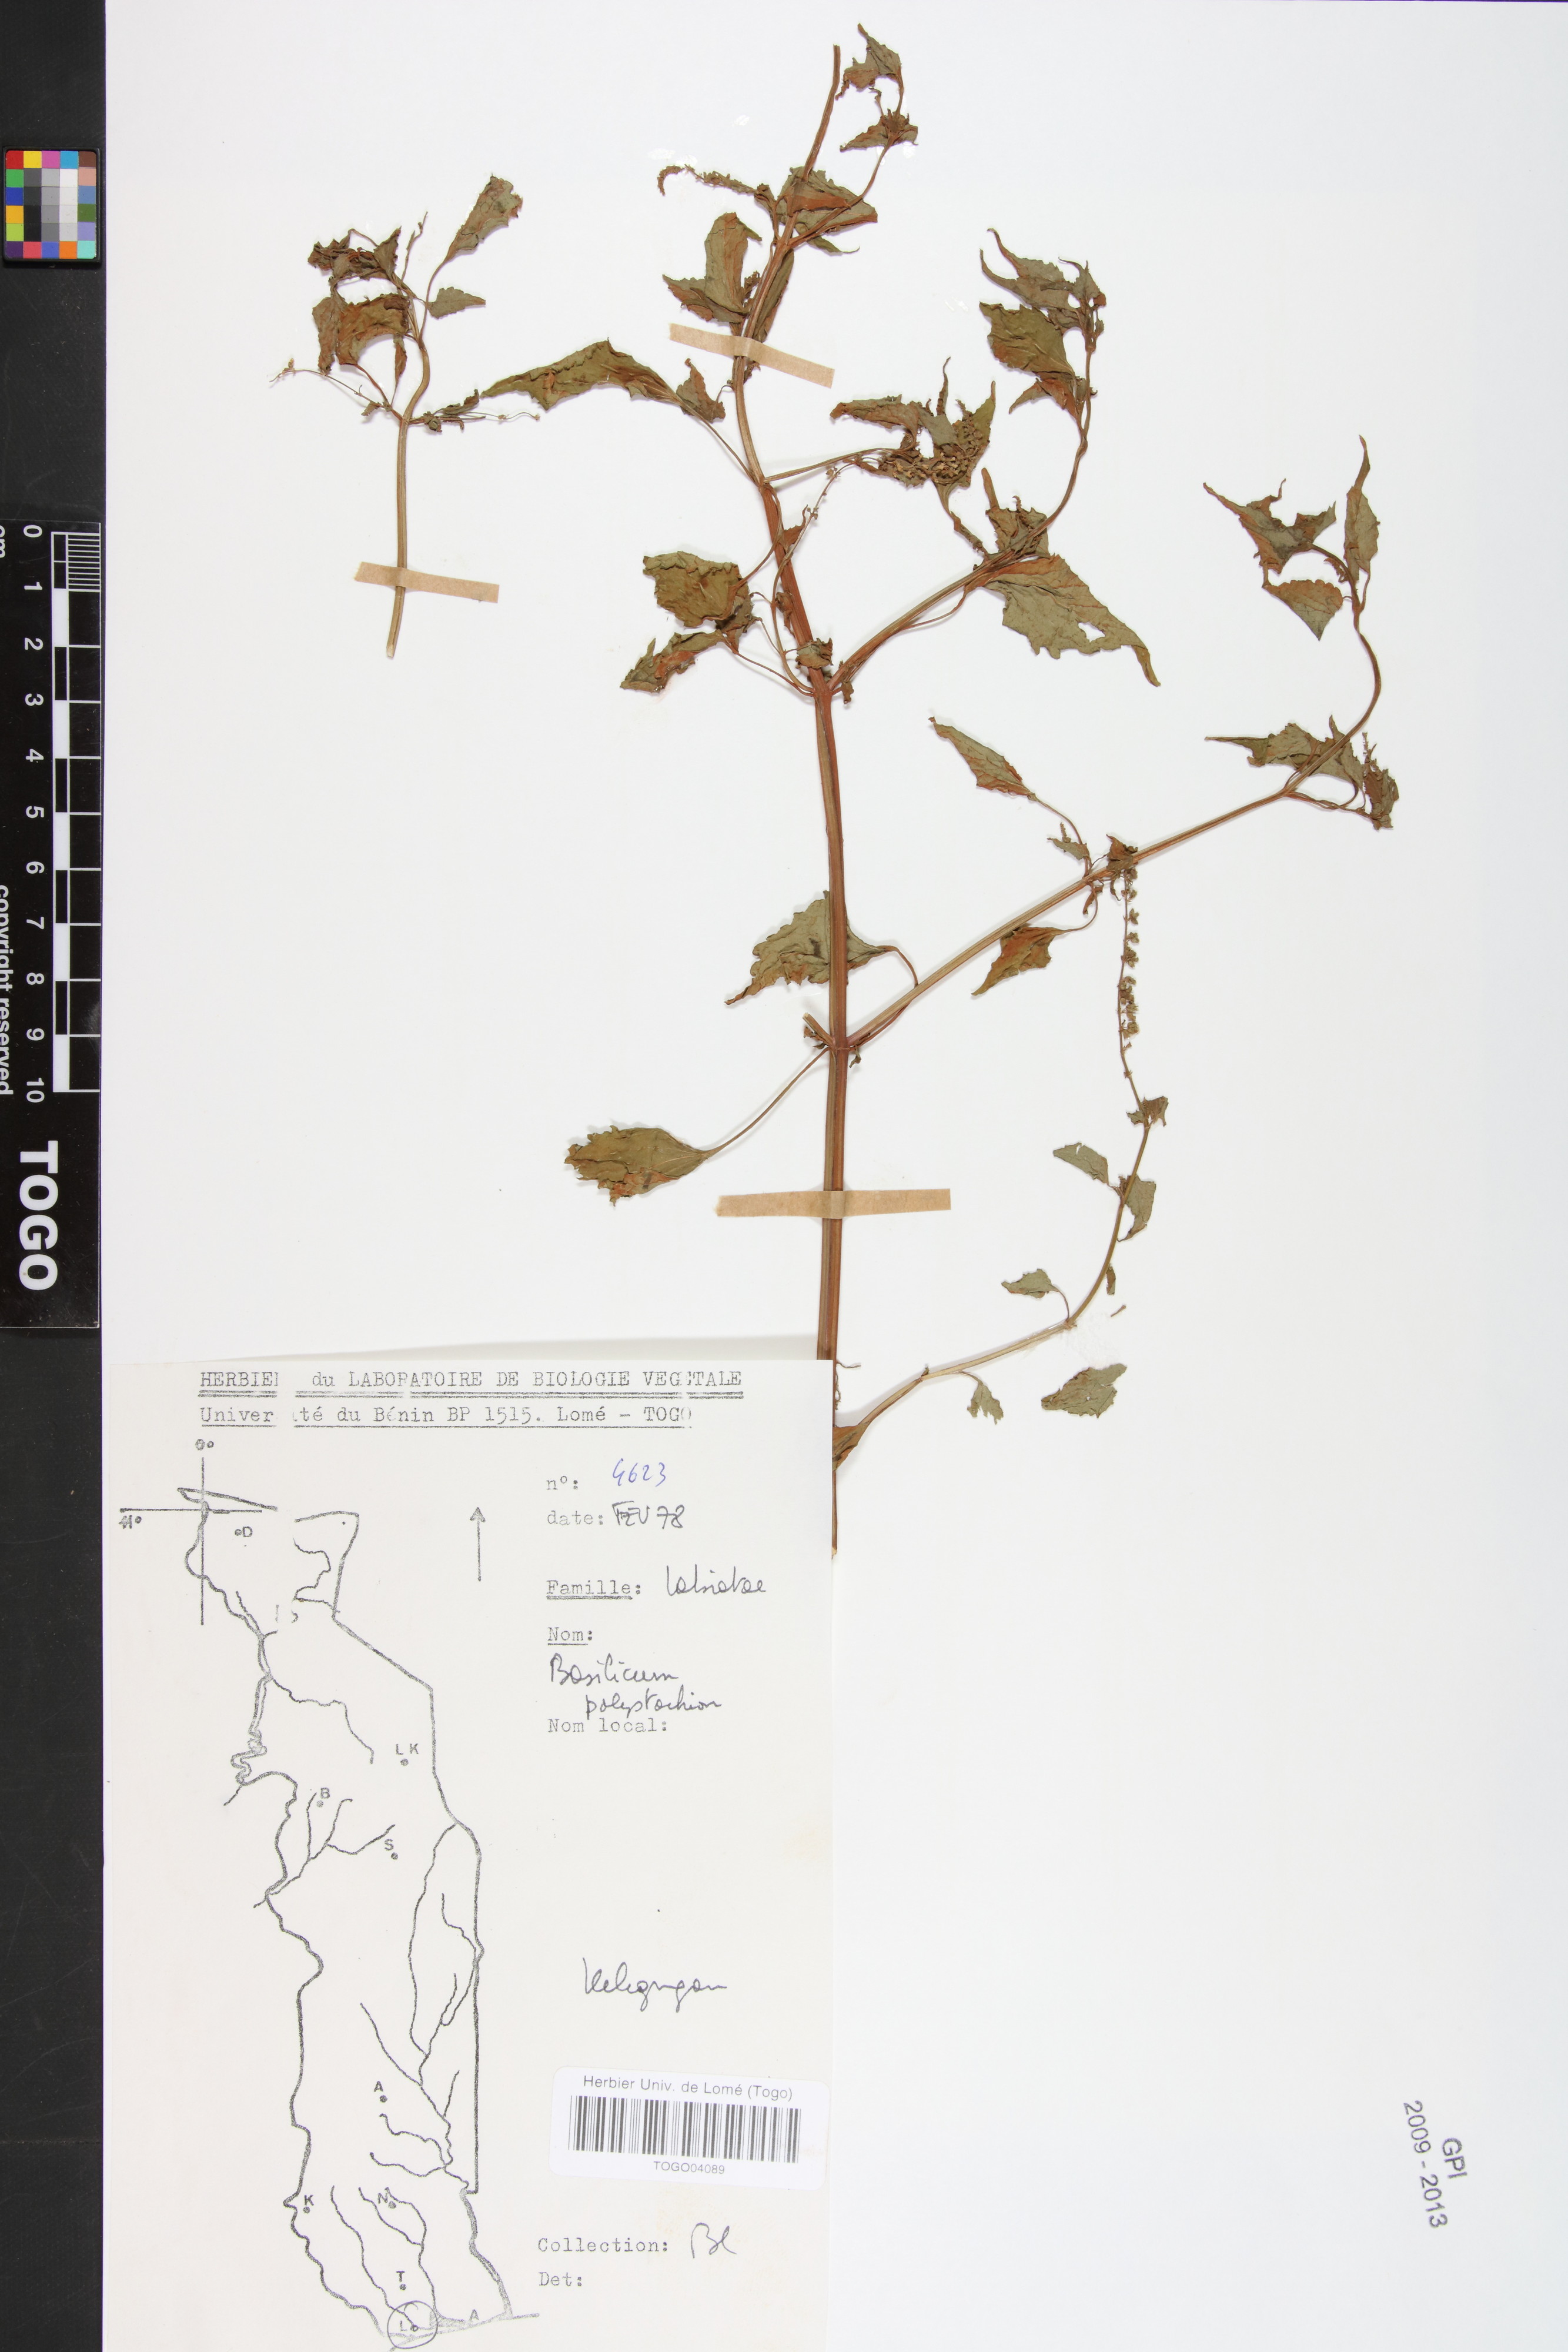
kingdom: Plantae
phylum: Tracheophyta
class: Magnoliopsida
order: Lamiales
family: Lamiaceae
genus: Basilicum
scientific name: Basilicum polystachyon
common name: Musk-basil
